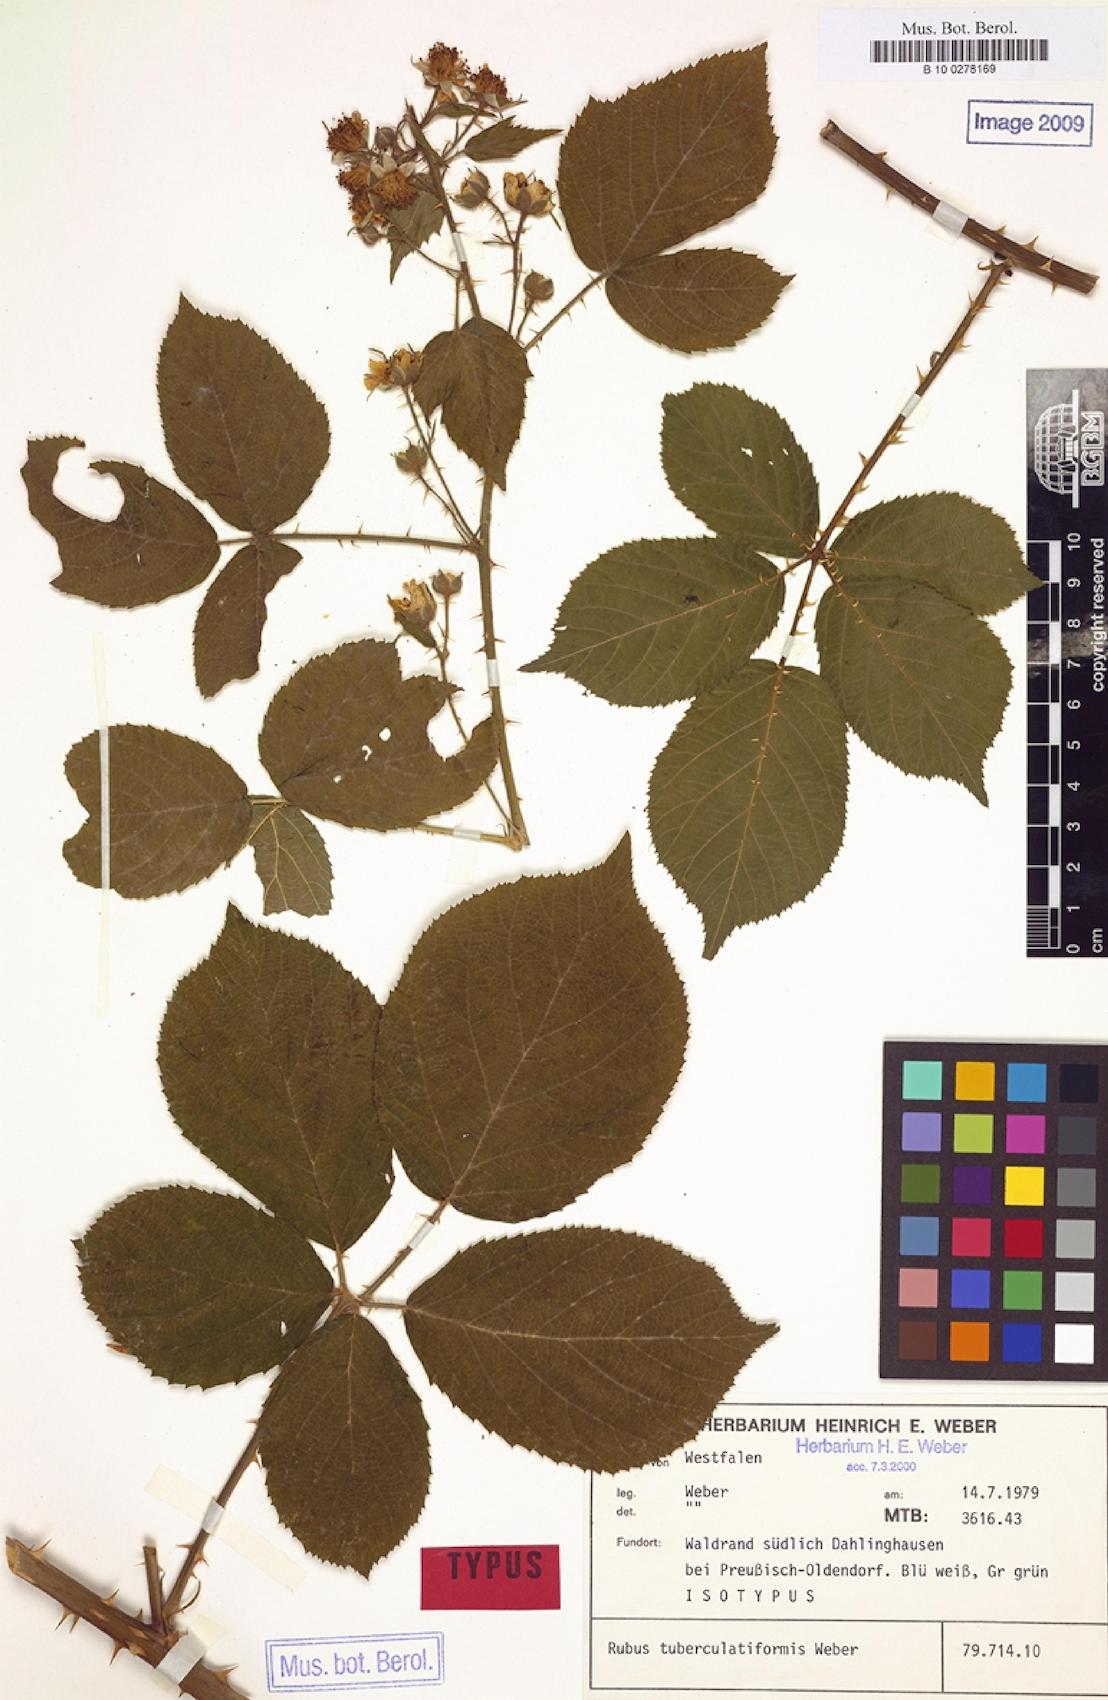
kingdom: Plantae
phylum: Tracheophyta
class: Magnoliopsida
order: Rosales
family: Rosaceae
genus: Rubus
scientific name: Rubus tuberculatiformis
